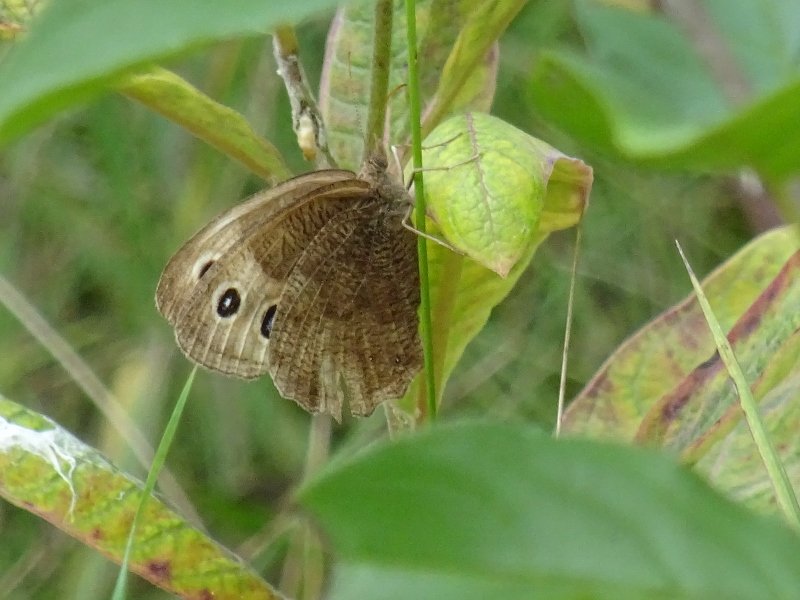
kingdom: Animalia
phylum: Arthropoda
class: Insecta
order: Lepidoptera
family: Nymphalidae
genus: Cercyonis
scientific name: Cercyonis pegala
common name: Common Wood-Nymph
